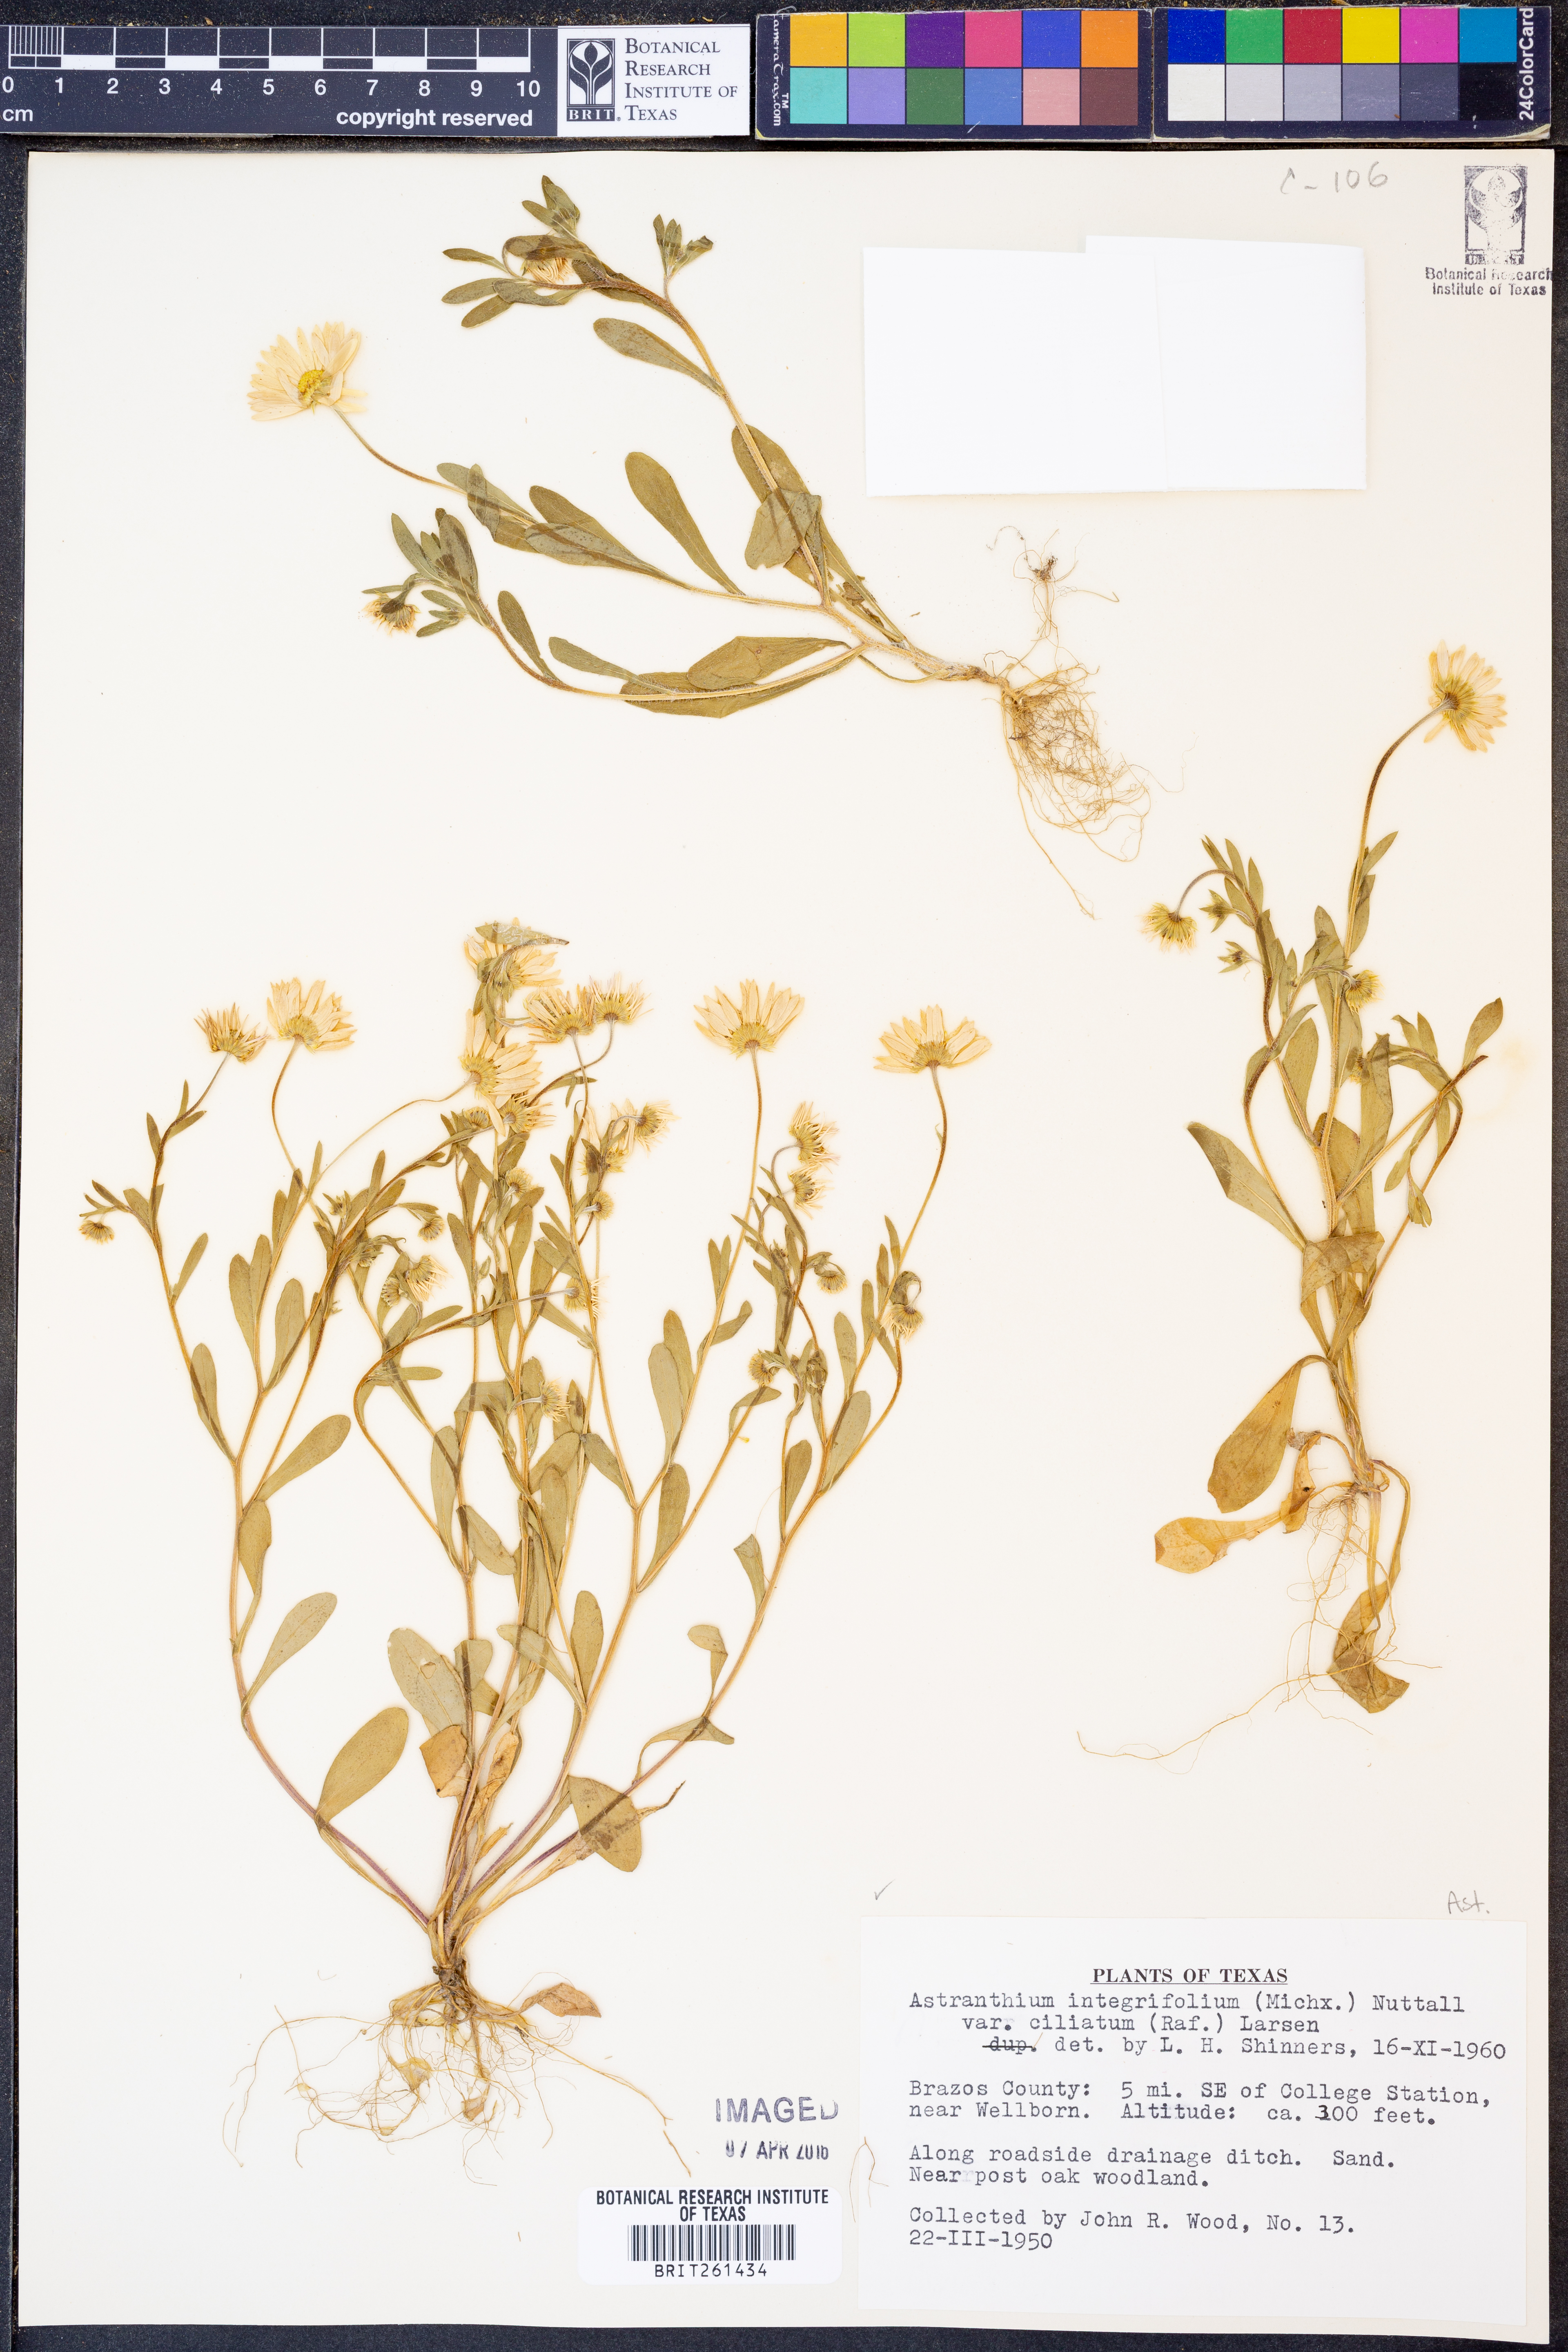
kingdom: Plantae
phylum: Tracheophyta
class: Magnoliopsida
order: Asterales
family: Asteraceae
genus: Astranthium
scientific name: Astranthium ciliatum
